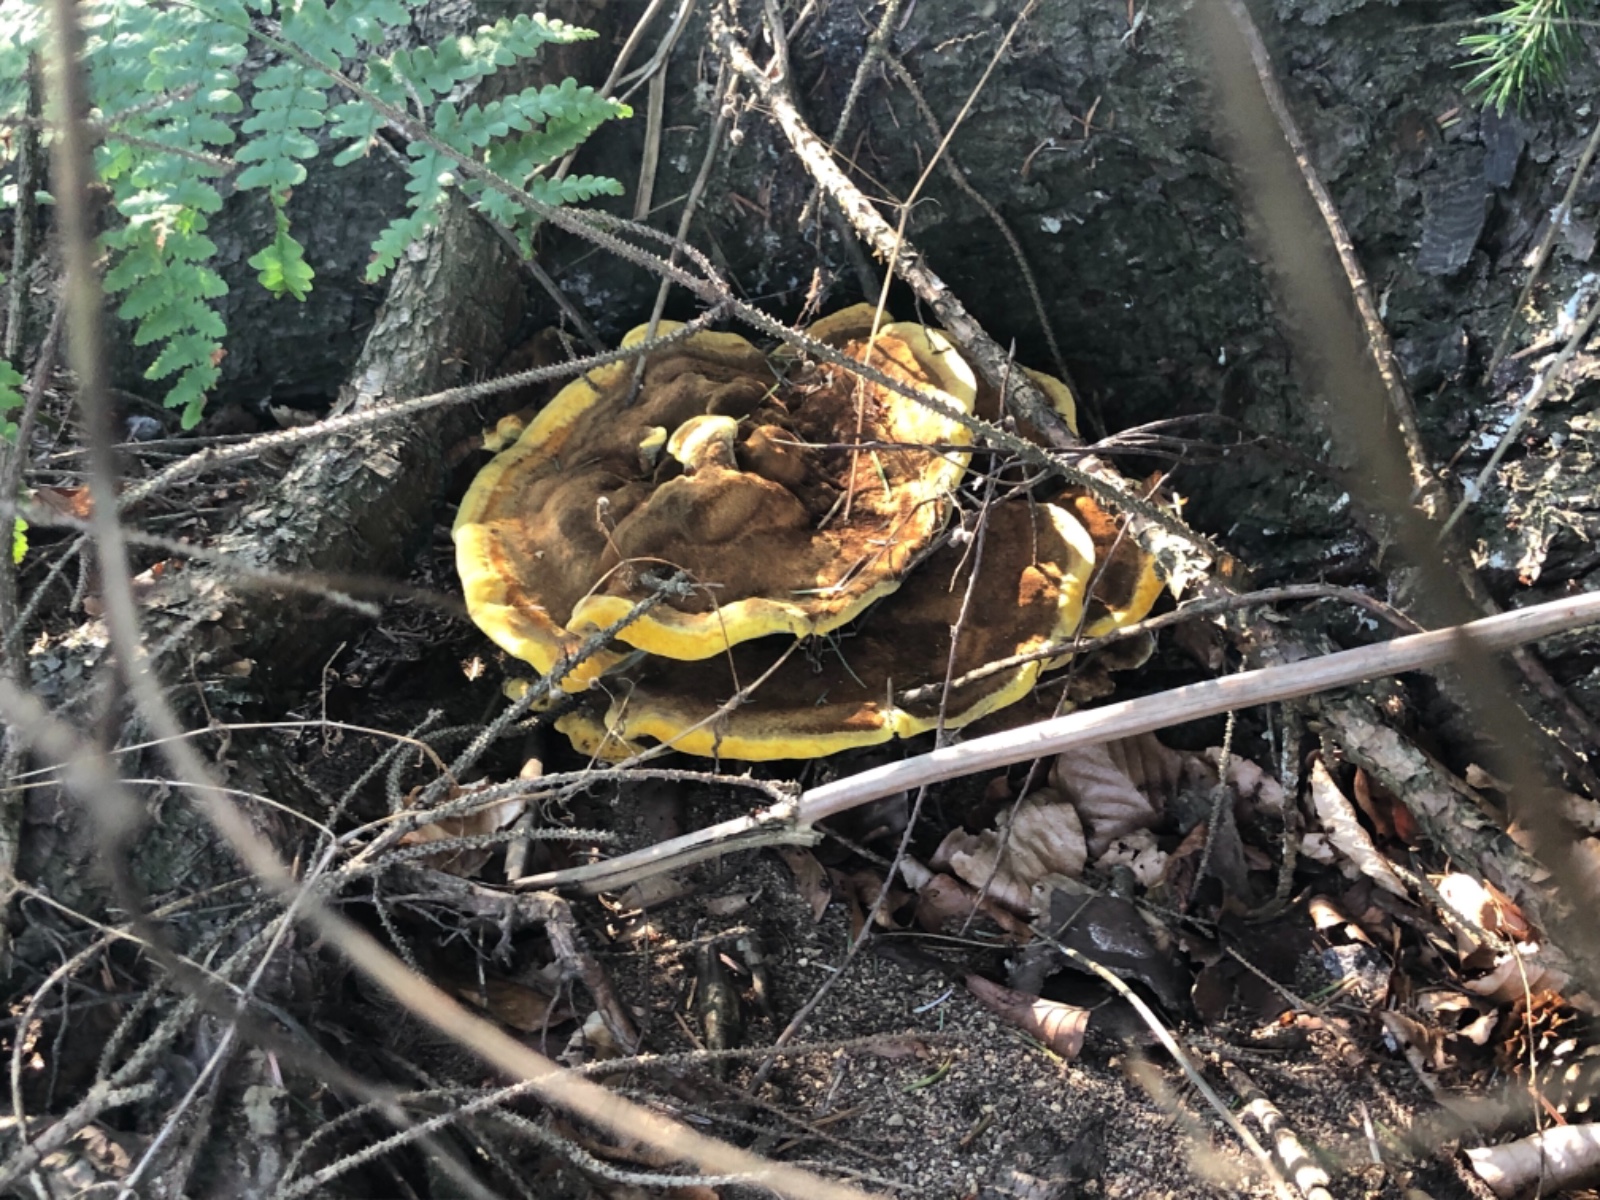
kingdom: Fungi
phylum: Basidiomycota
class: Agaricomycetes
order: Polyporales
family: Laetiporaceae
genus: Phaeolus
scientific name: Phaeolus schweinitzii
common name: brunporesvamp
